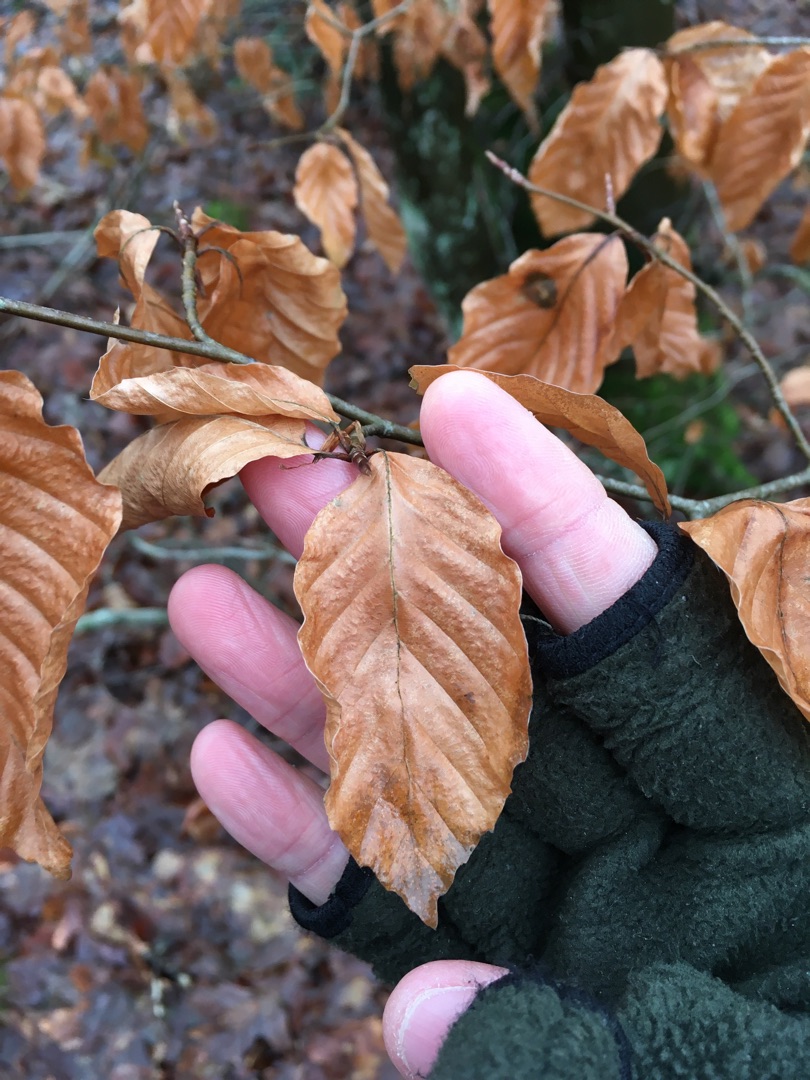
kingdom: Plantae
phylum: Tracheophyta
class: Magnoliopsida
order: Fagales
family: Fagaceae
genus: Fagus
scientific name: Fagus sylvatica
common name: Bøg
